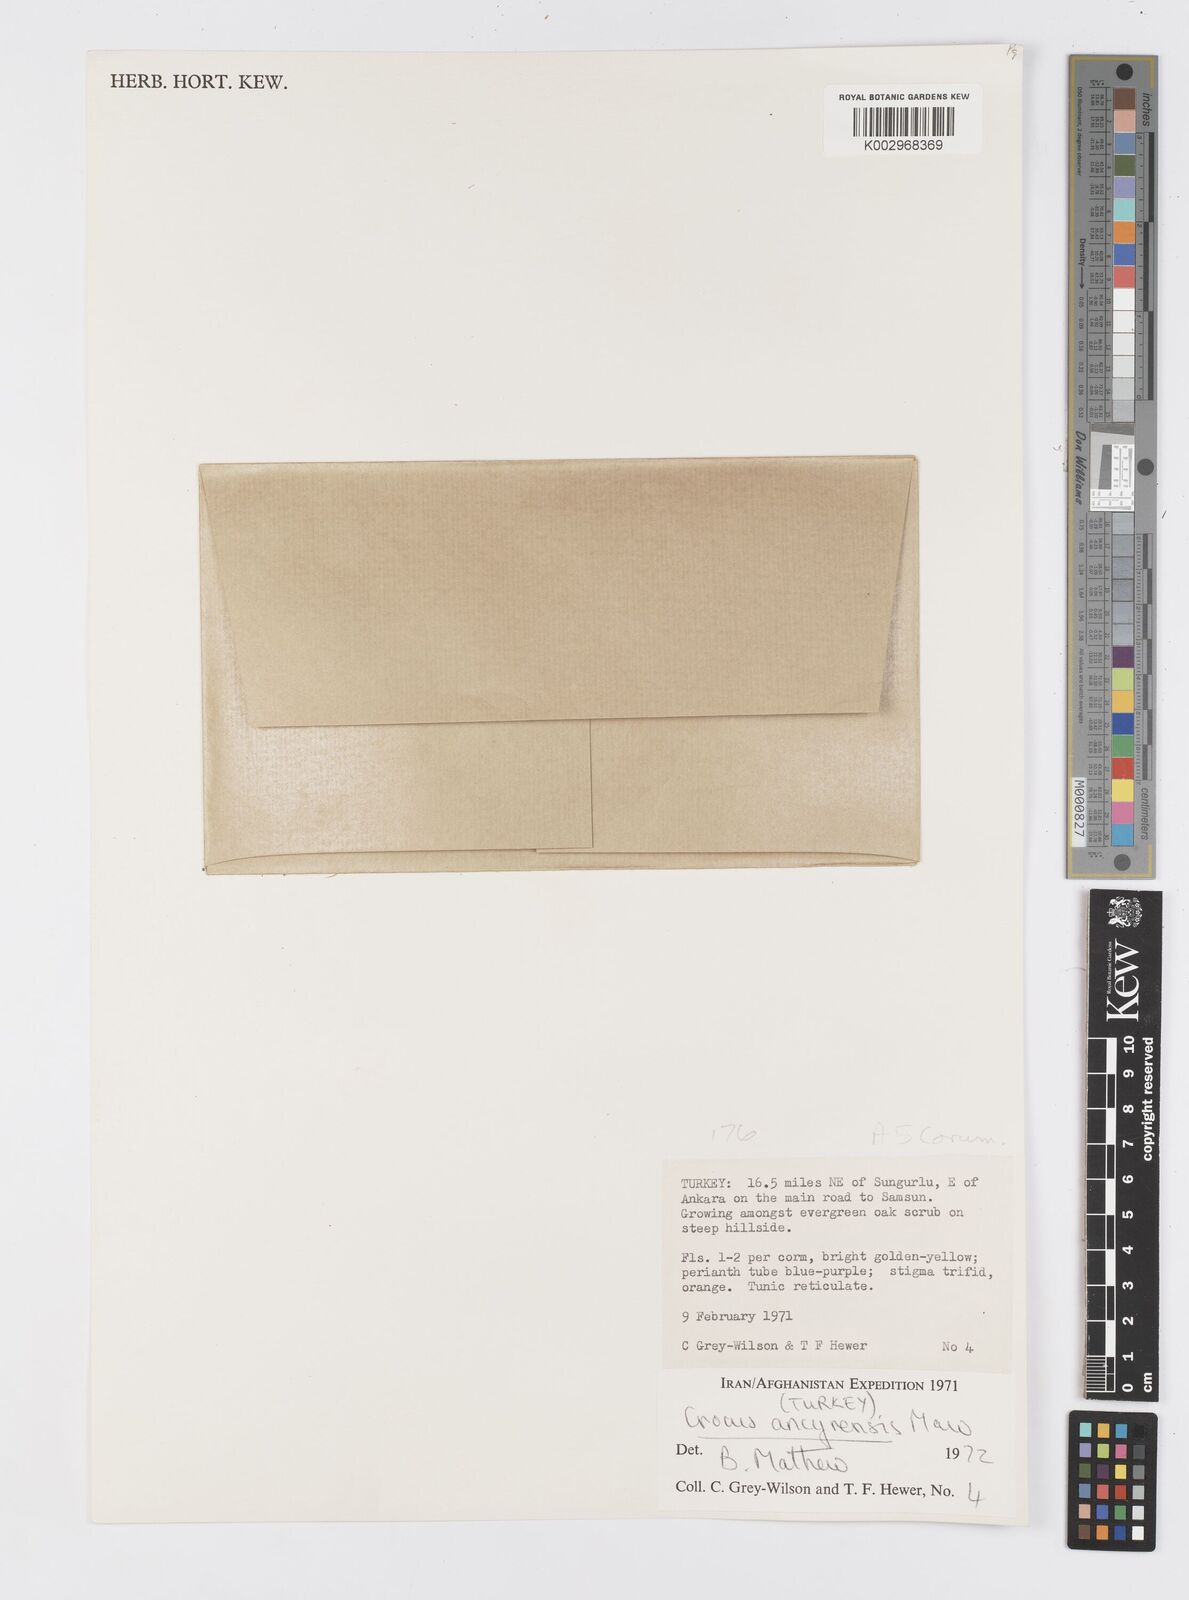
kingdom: Plantae
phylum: Tracheophyta
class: Liliopsida
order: Asparagales
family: Iridaceae
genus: Crocus
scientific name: Crocus ancyrensis
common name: Ankara crocus
